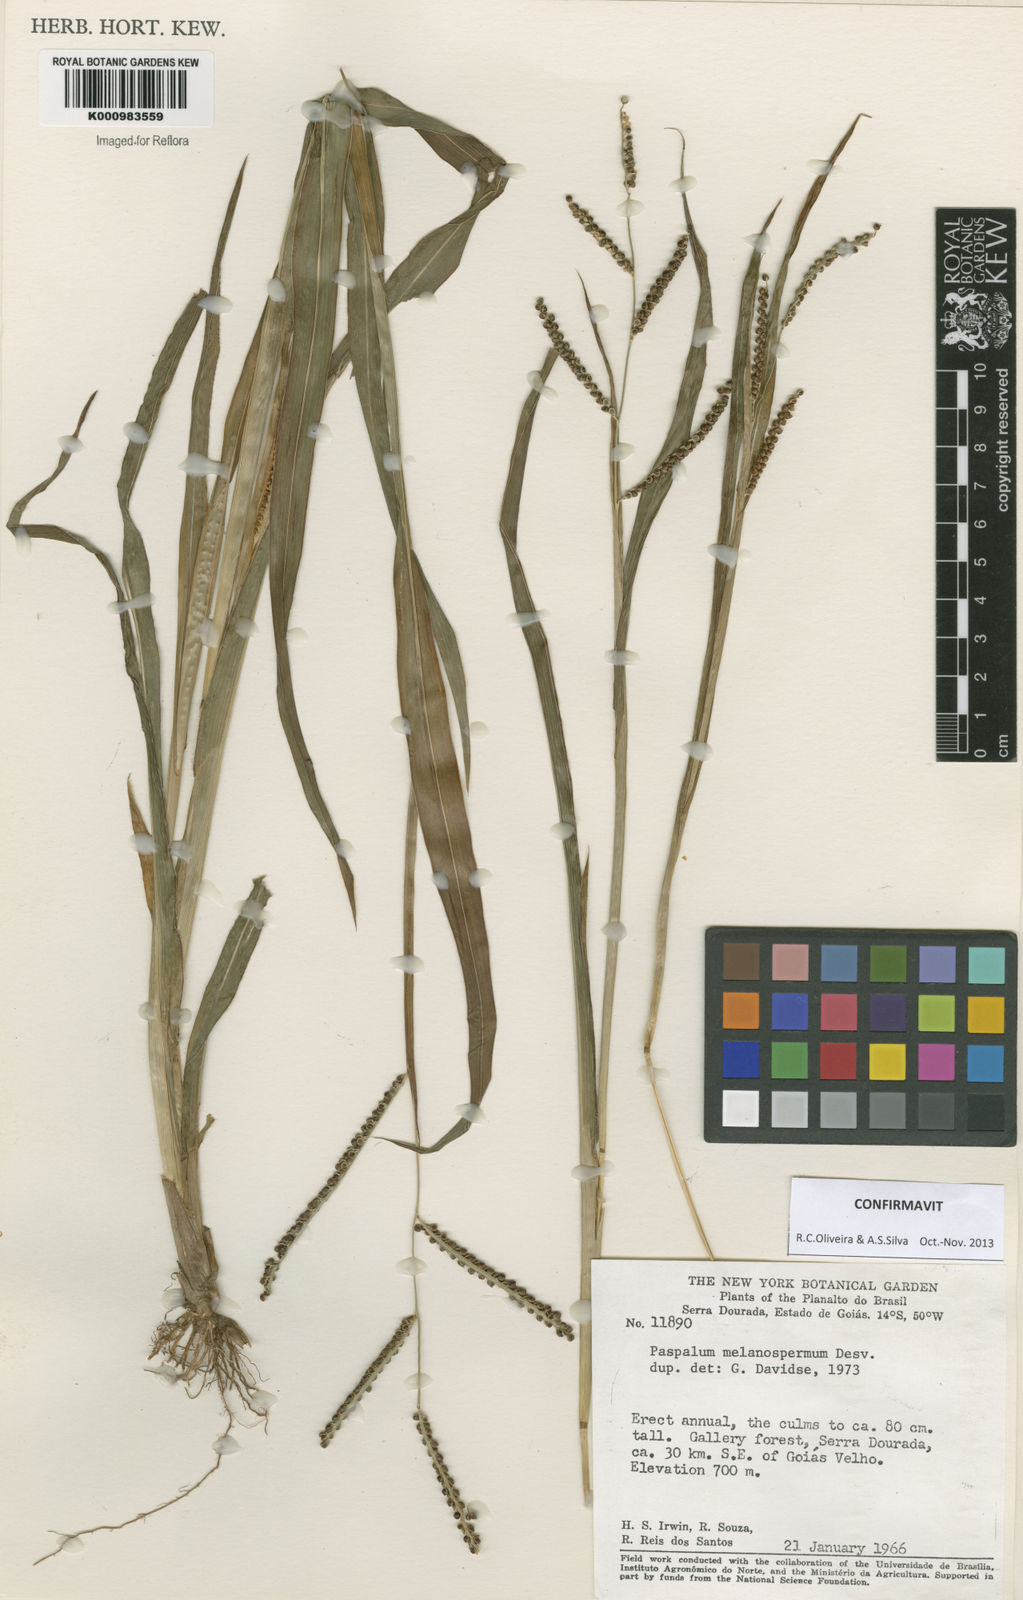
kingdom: Plantae
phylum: Tracheophyta
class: Liliopsida
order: Poales
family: Poaceae
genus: Paspalum
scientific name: Paspalum melanospermum
